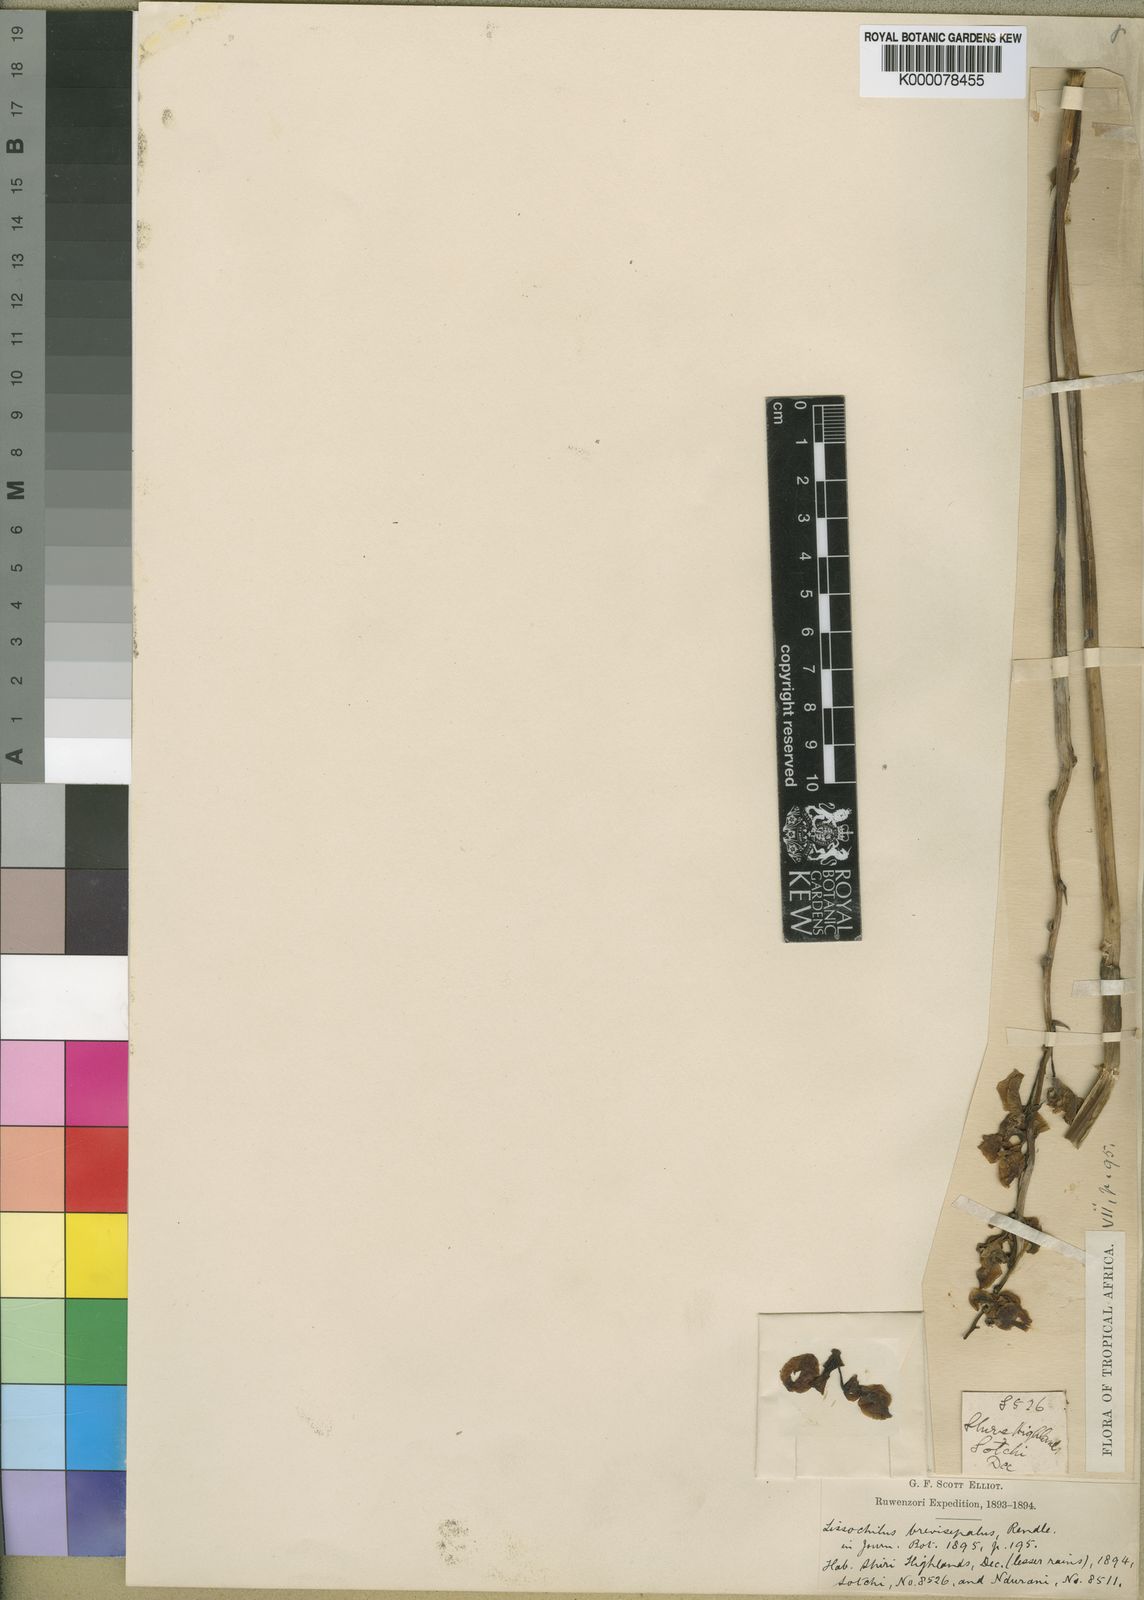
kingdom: Plantae
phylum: Tracheophyta
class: Liliopsida
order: Asparagales
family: Orchidaceae
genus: Eulophia
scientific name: Eulophia speciosa
